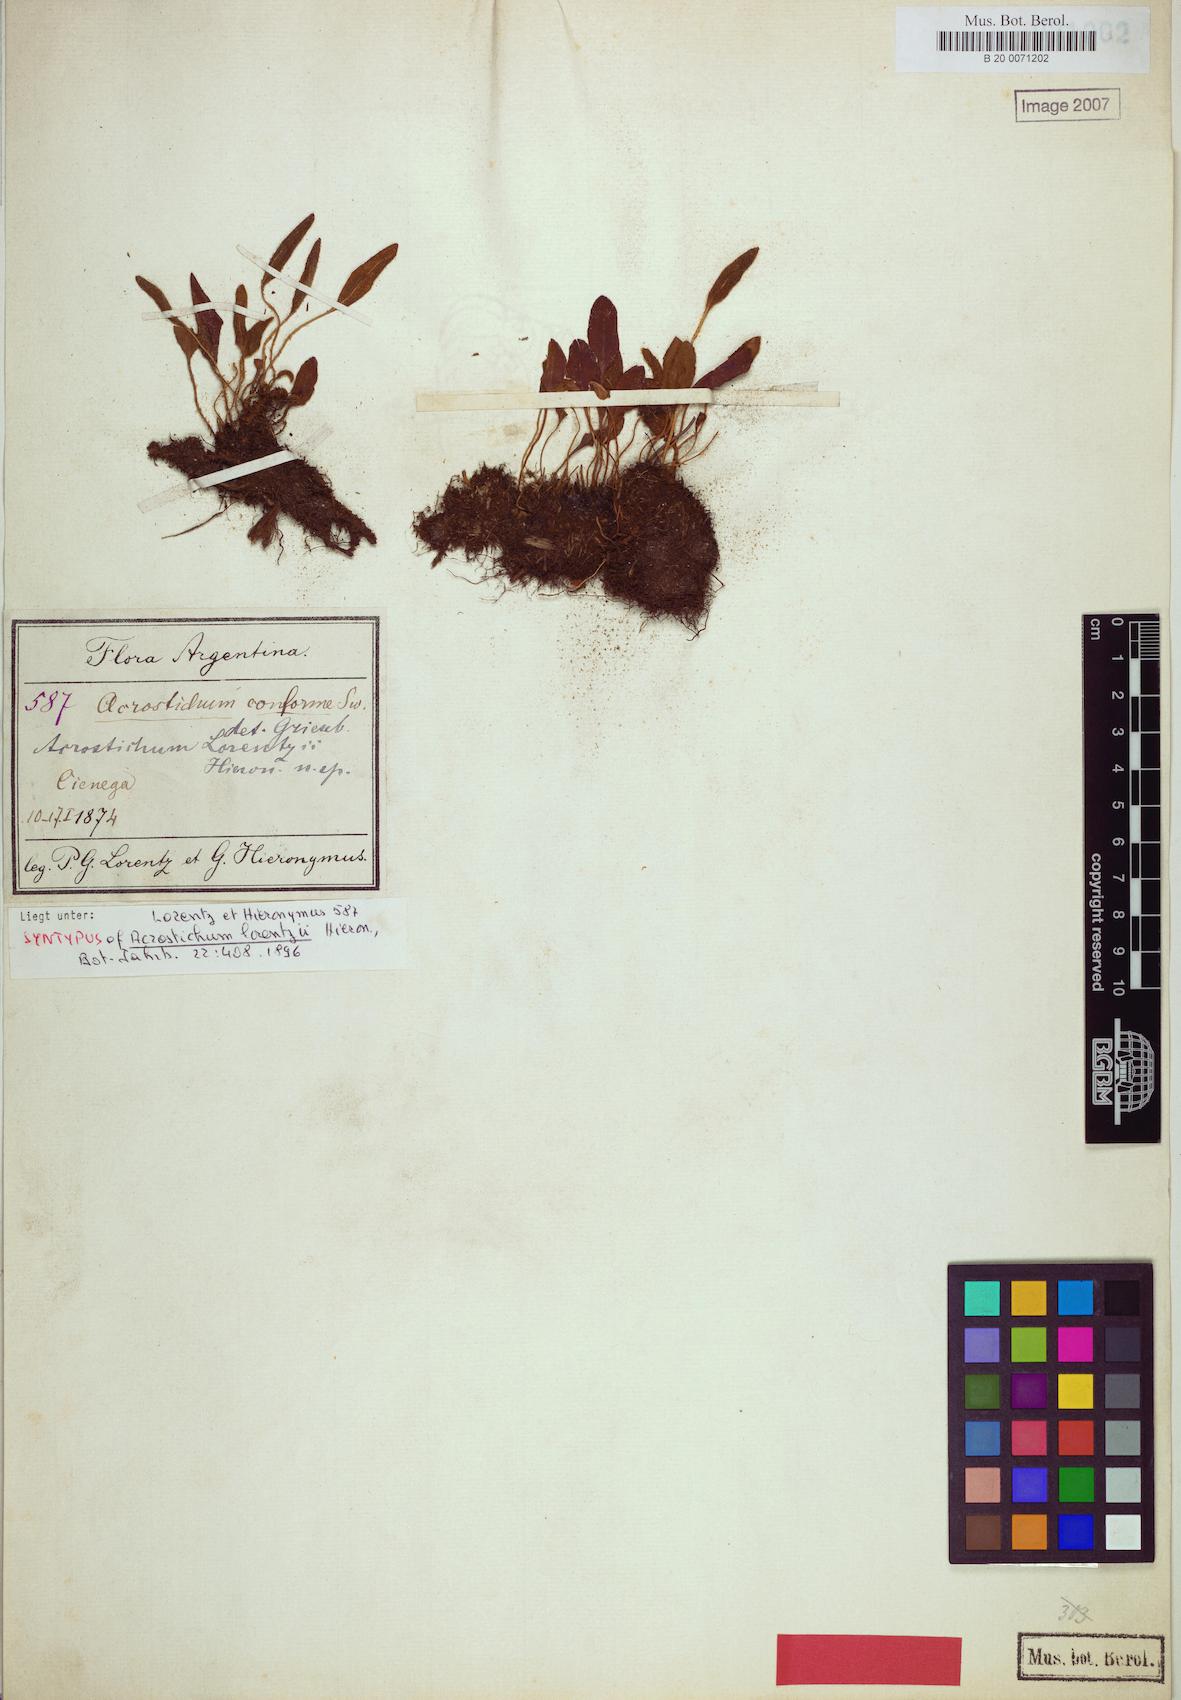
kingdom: Plantae
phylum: Tracheophyta
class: Polypodiopsida
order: Polypodiales
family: Dryopteridaceae
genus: Elaphoglossum
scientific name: Elaphoglossum lorentzii
